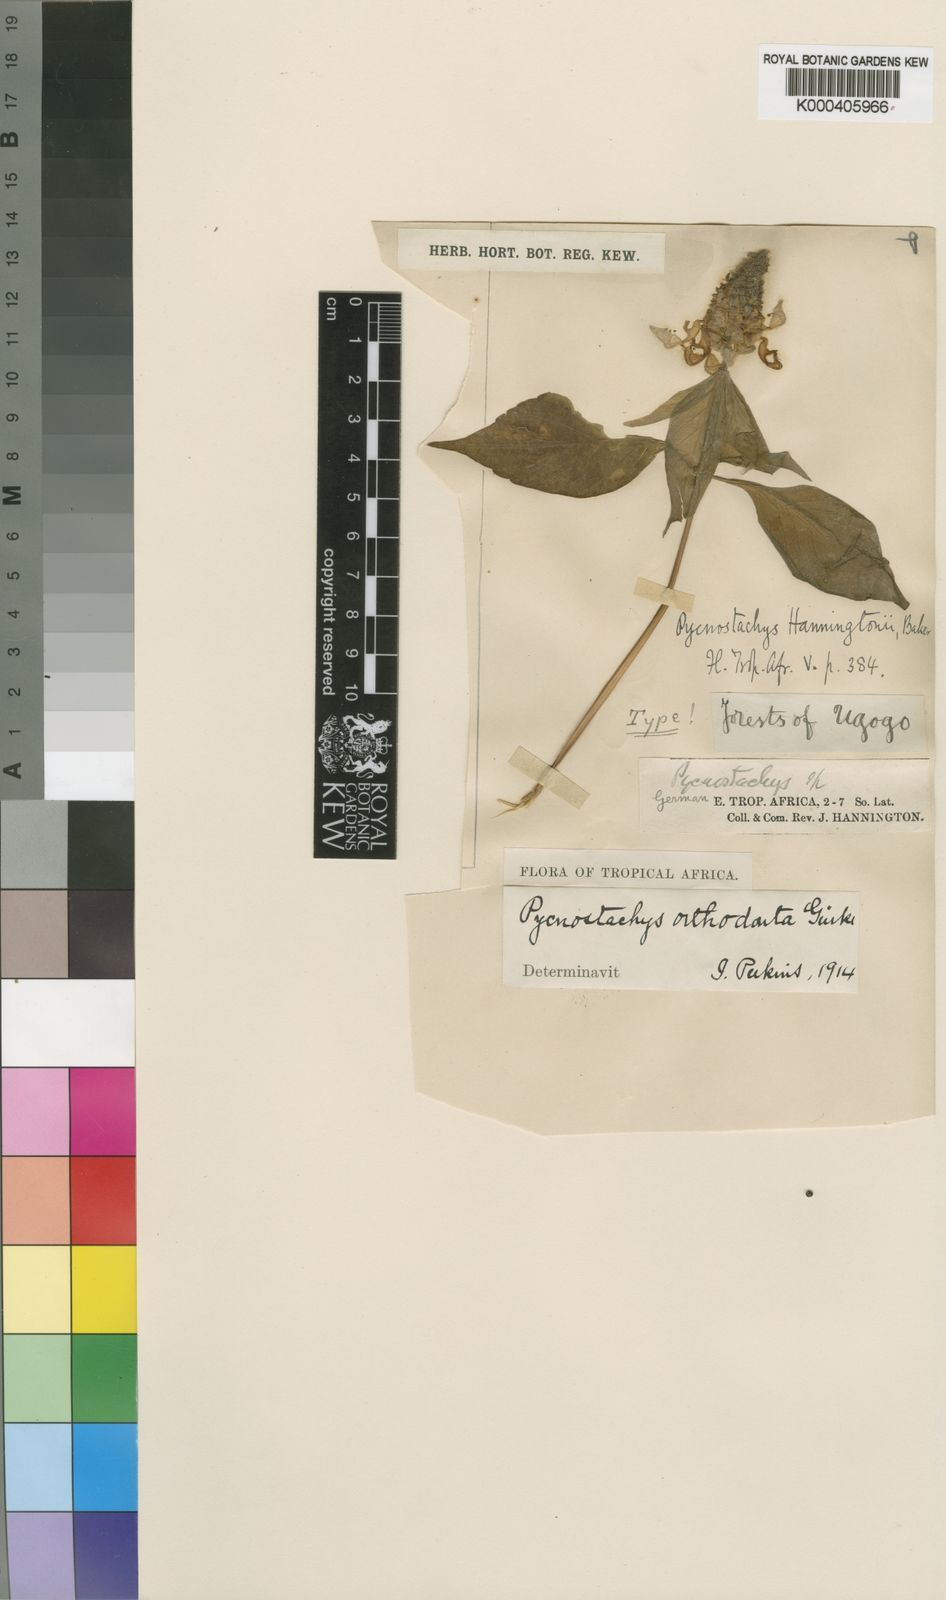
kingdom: Plantae
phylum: Tracheophyta
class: Magnoliopsida
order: Lamiales
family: Lamiaceae
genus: Coleus
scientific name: Coleus
